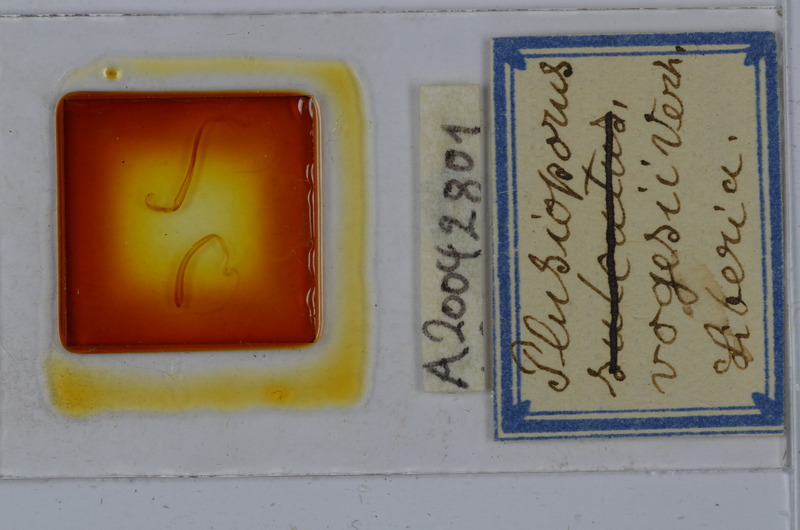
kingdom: Animalia
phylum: Arthropoda
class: Diplopoda
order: Spirostreptida
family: Spirostreptidae
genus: Telodeinopus
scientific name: Telodeinopus sulcatus
